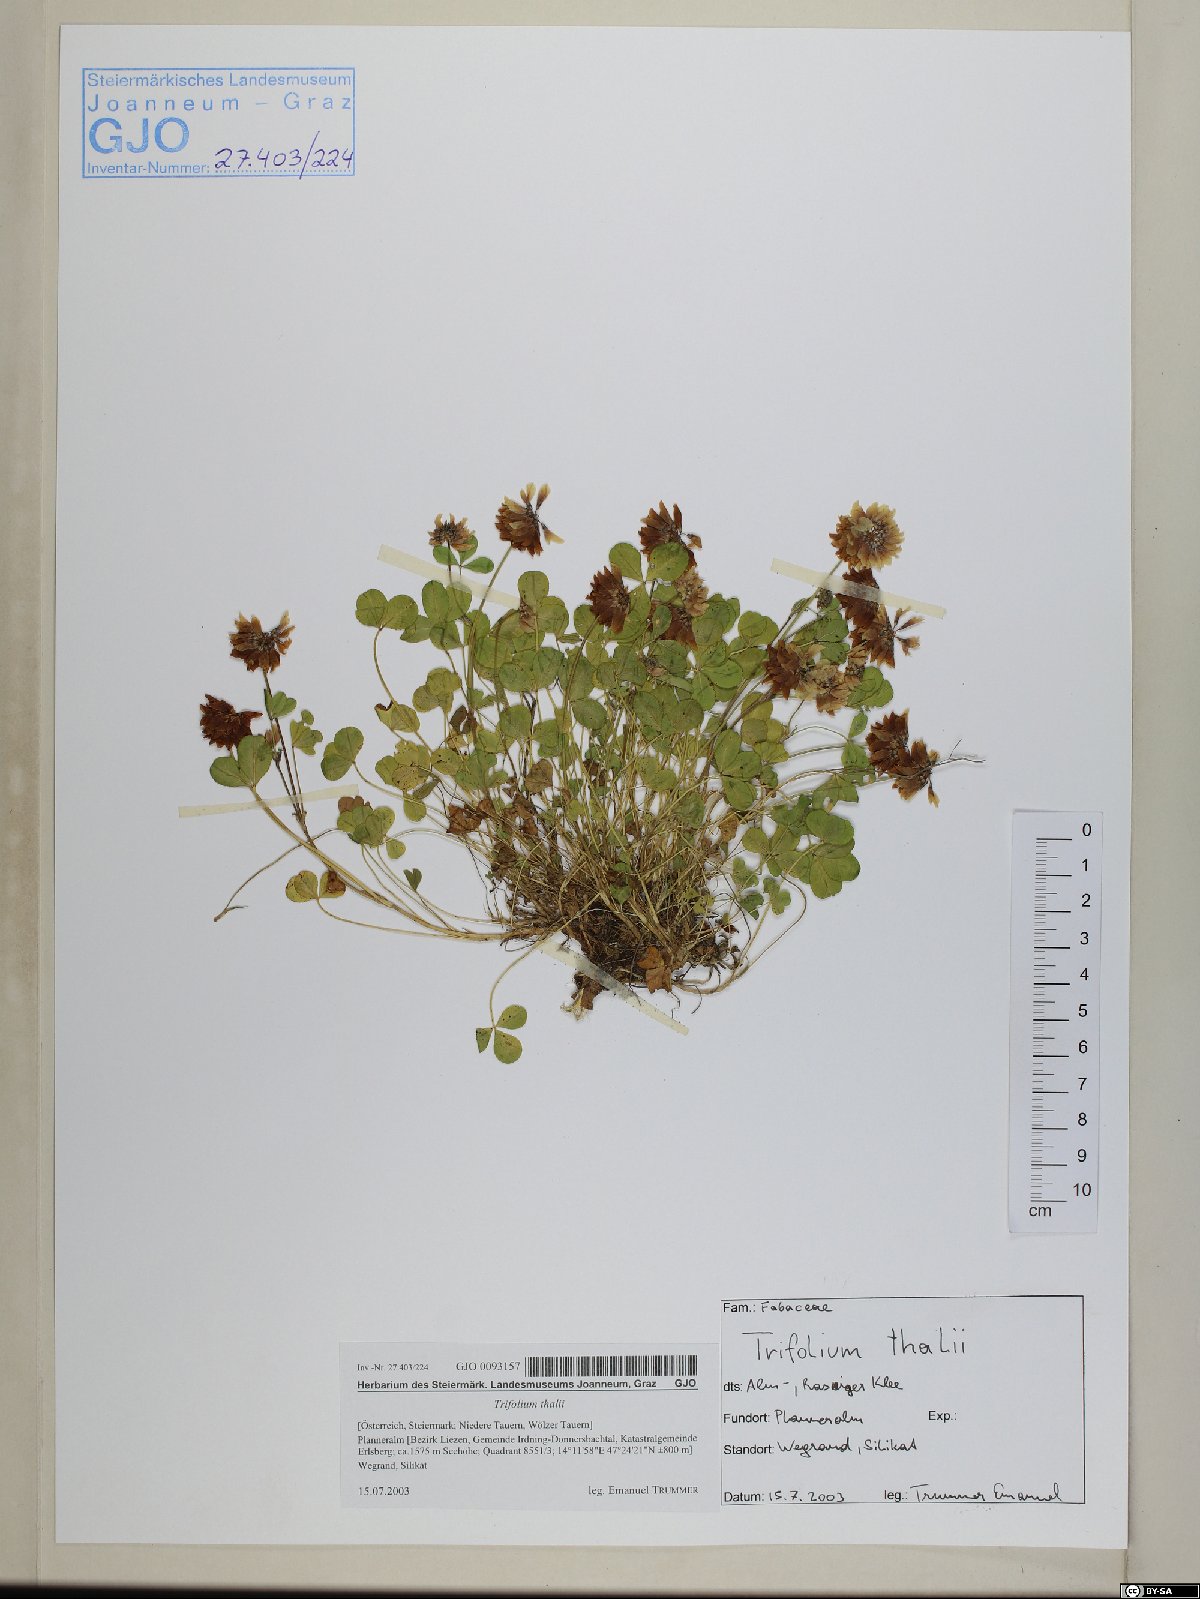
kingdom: Plantae
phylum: Tracheophyta
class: Magnoliopsida
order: Fabales
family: Fabaceae
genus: Trifolium
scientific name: Trifolium thalii
